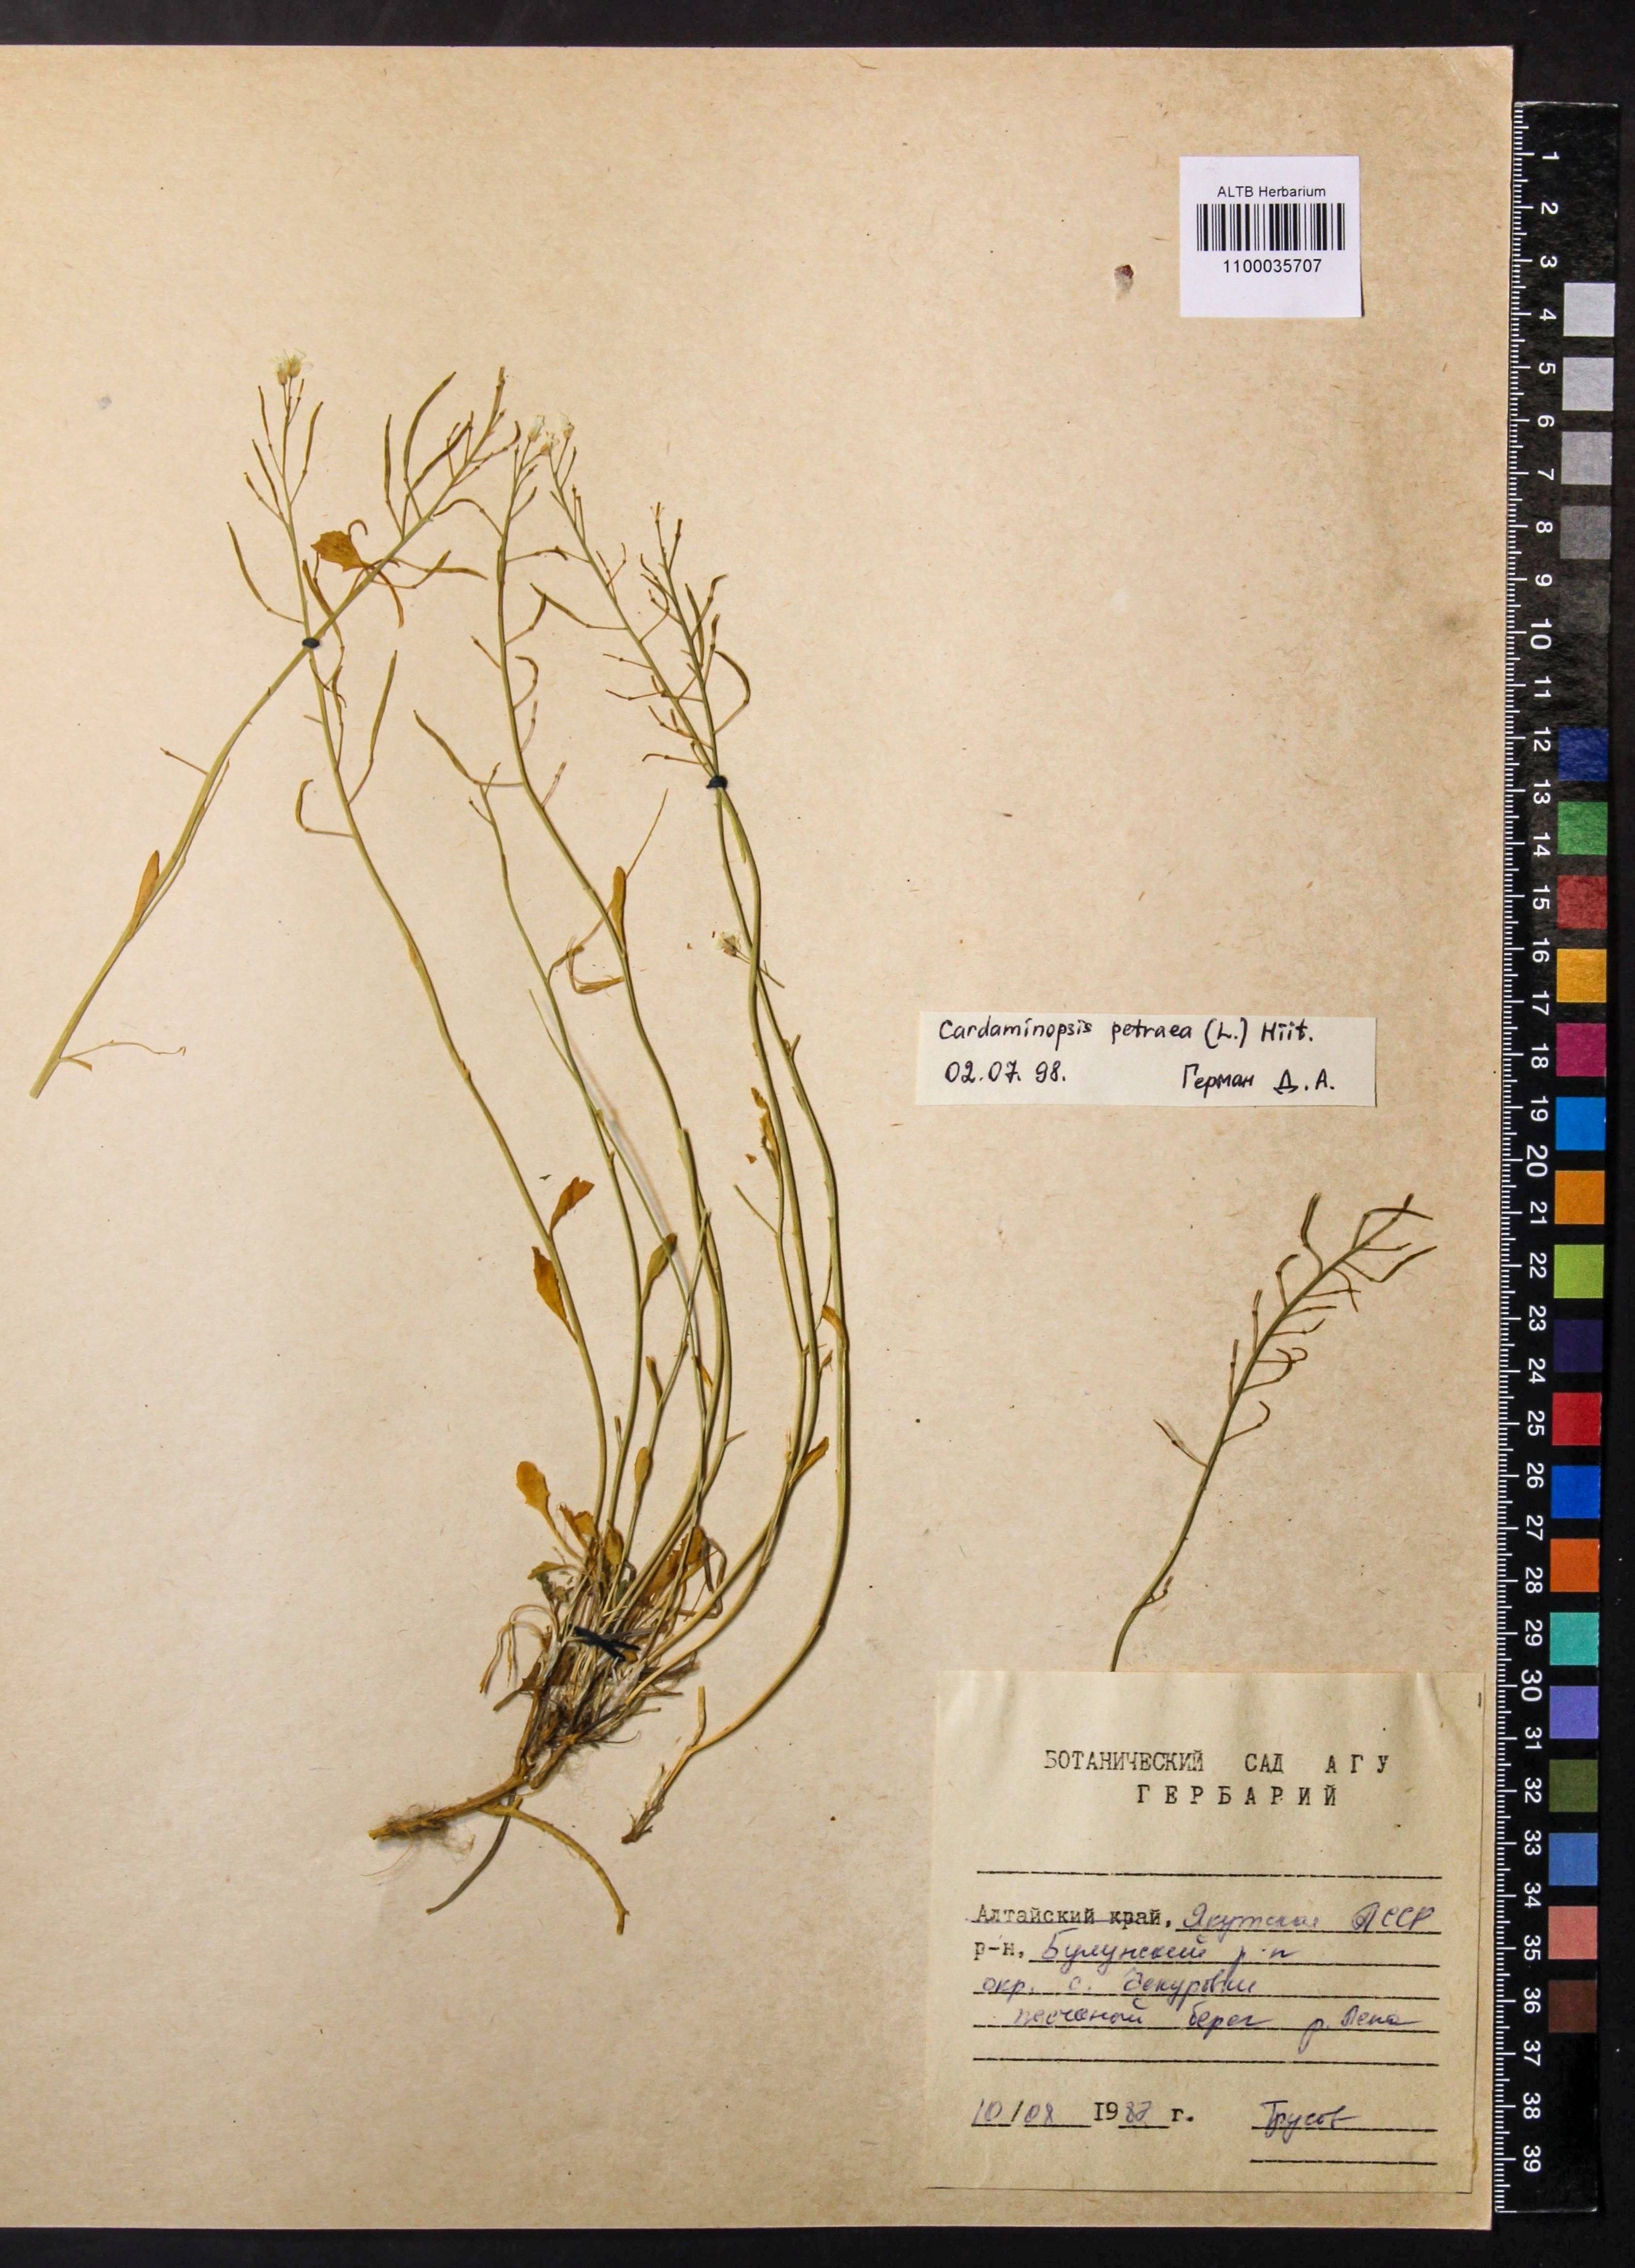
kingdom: Plantae
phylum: Tracheophyta
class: Magnoliopsida
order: Brassicales
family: Brassicaceae
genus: Arabidopsis
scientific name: Arabidopsis lyrata
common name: Lyrate rockcress
